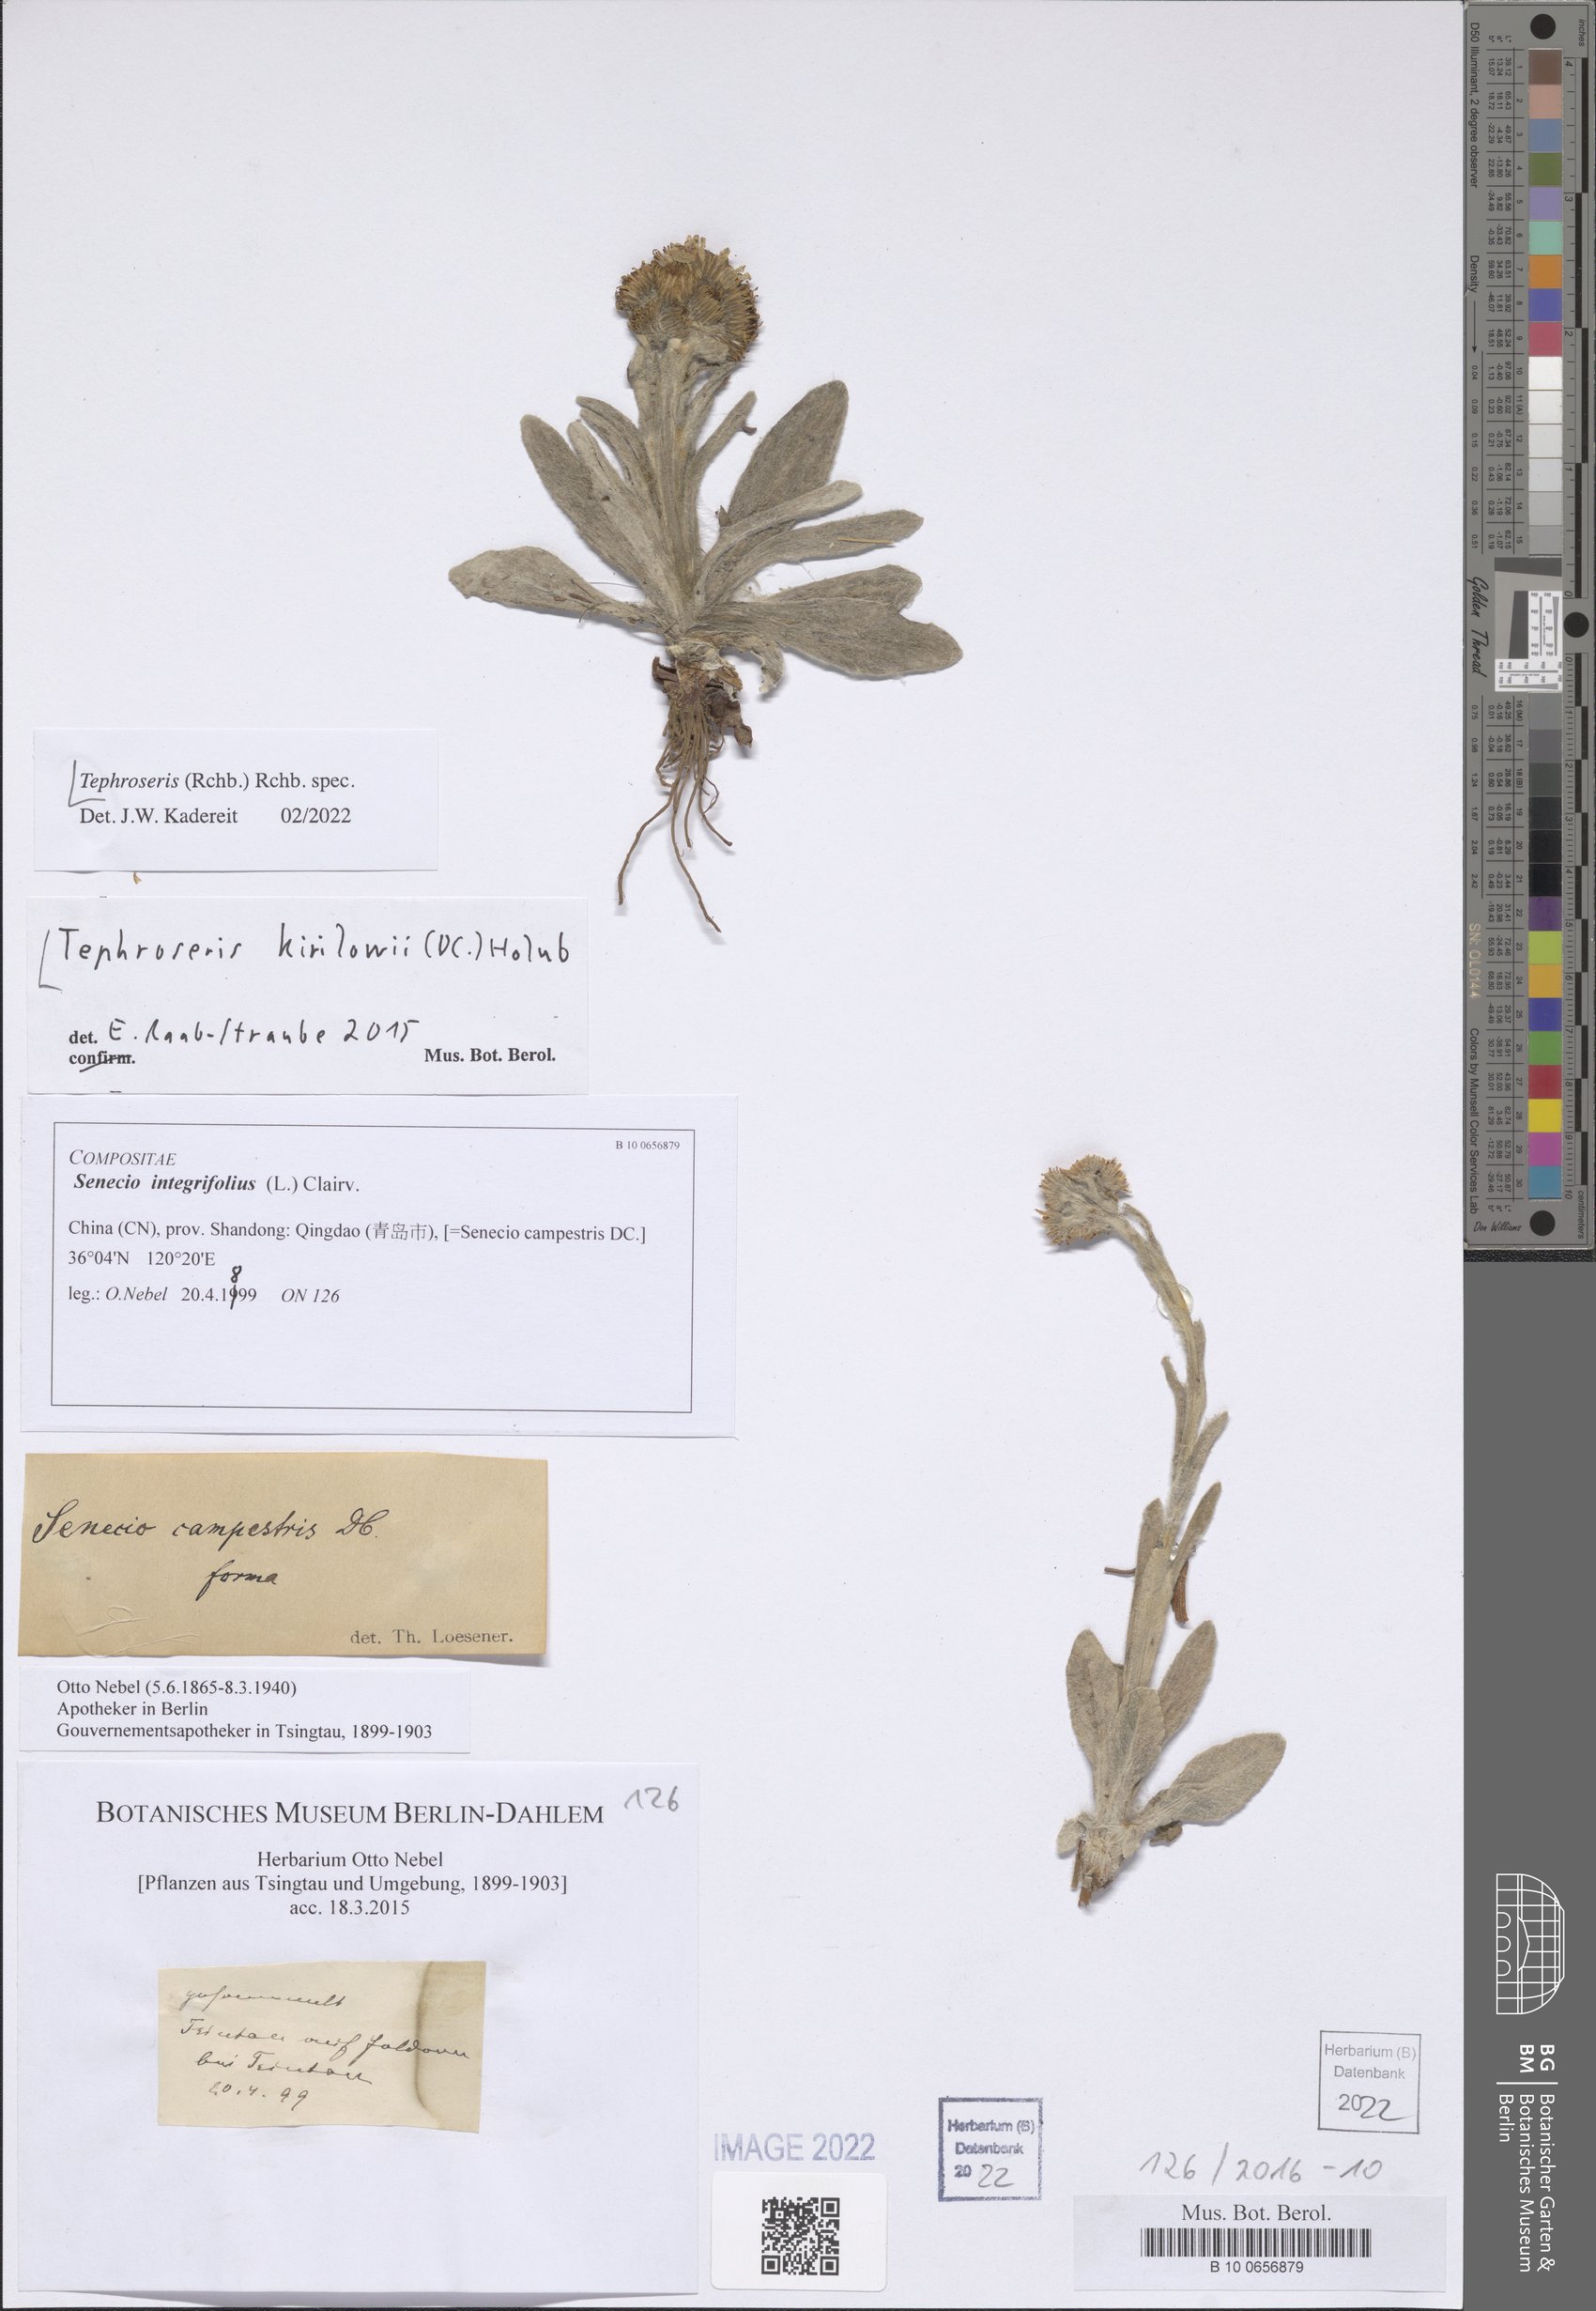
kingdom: Plantae
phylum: Tracheophyta
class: Magnoliopsida
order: Asterales
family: Asteraceae
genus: Tephroseris
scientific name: Tephroseris
